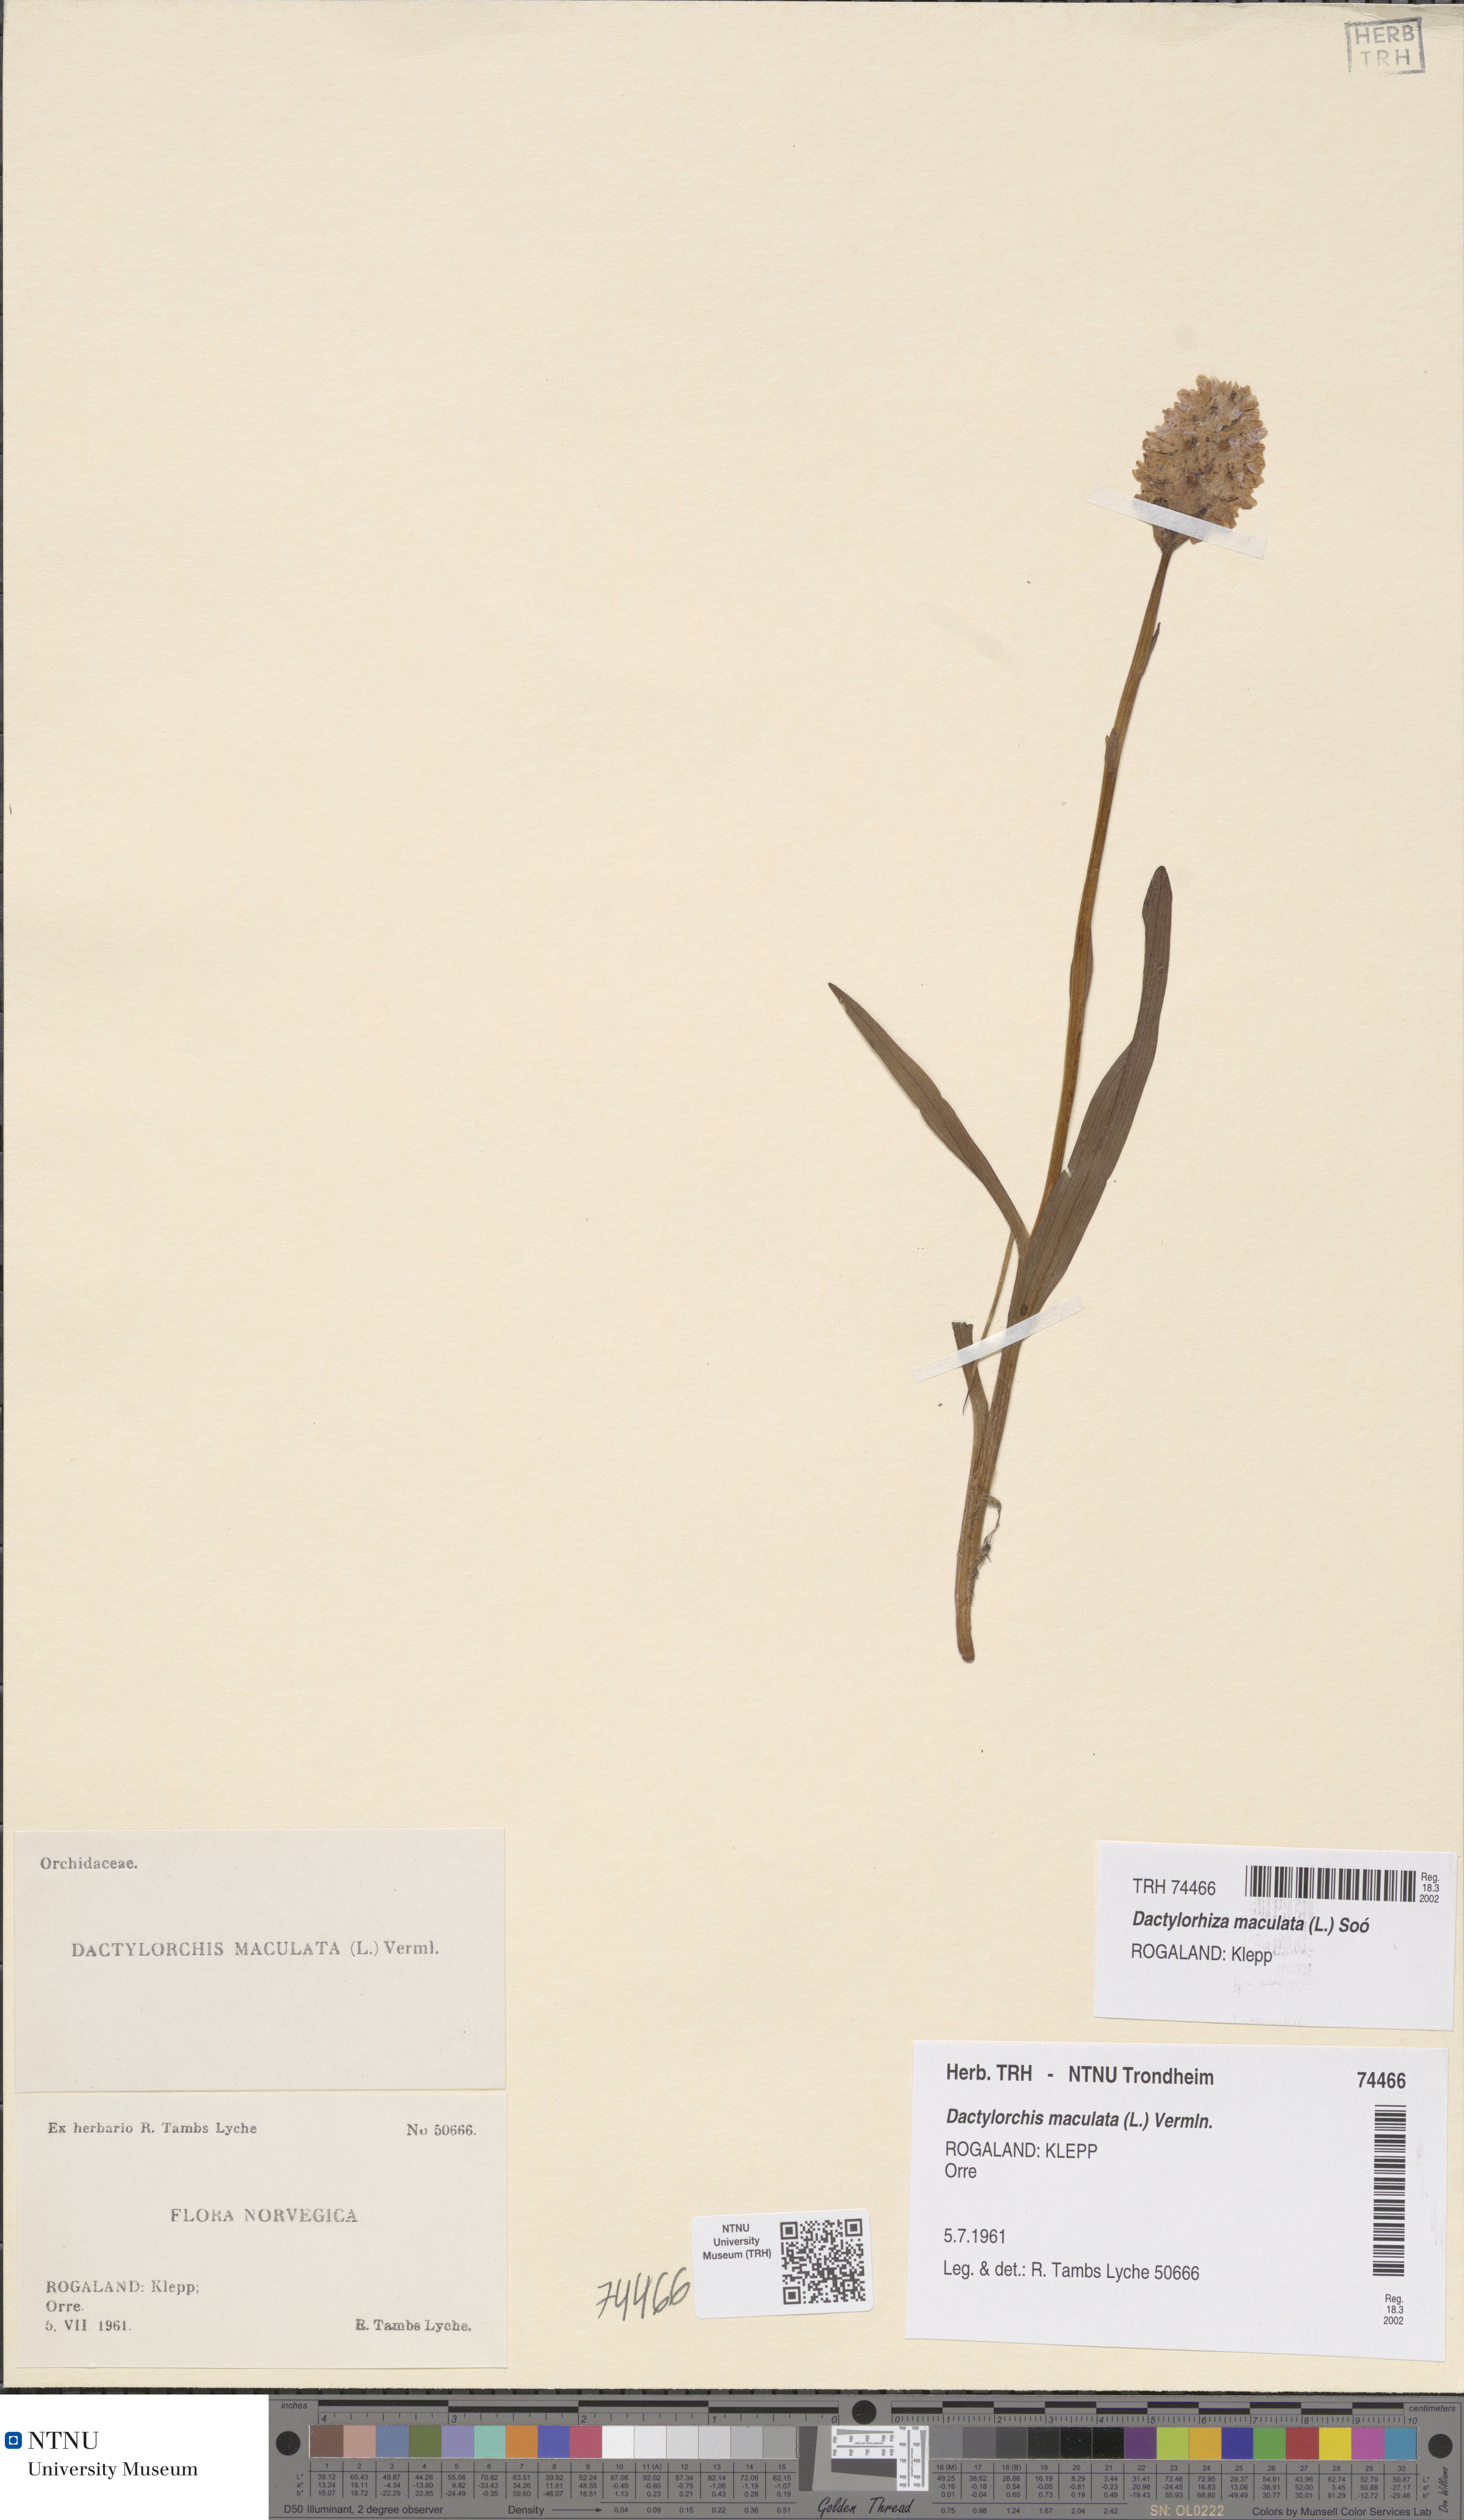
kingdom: Plantae
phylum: Tracheophyta
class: Liliopsida
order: Asparagales
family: Orchidaceae
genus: Dactylorhiza
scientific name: Dactylorhiza maculata
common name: Heath spotted-orchid
